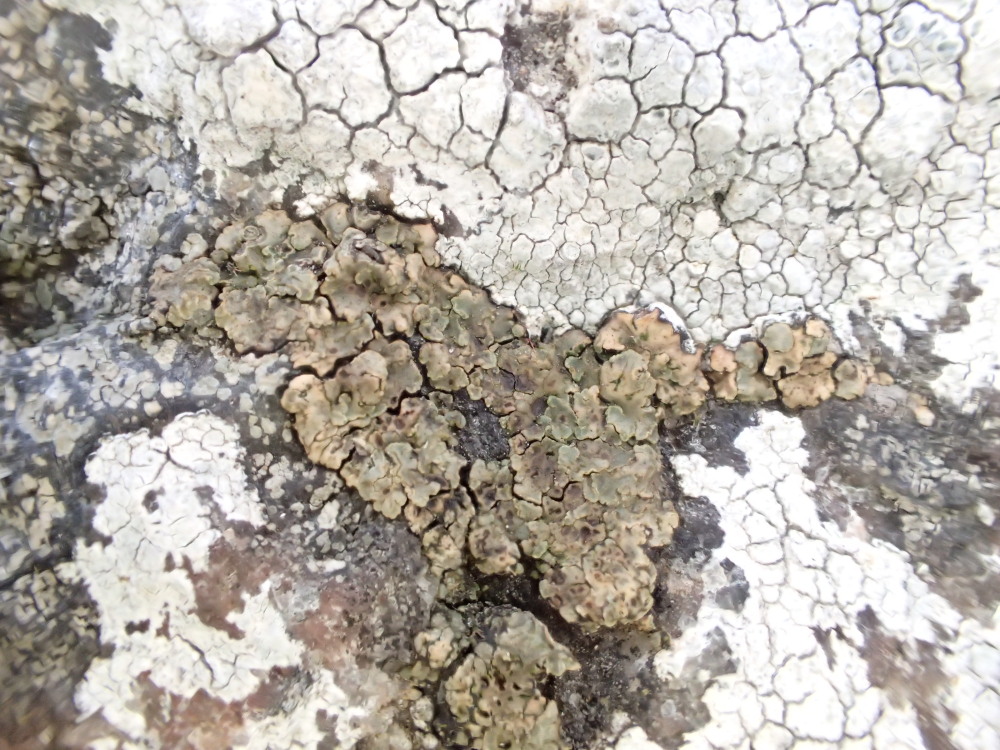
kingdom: Fungi
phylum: Ascomycota
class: Lecanoromycetes
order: Acarosporales
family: Acarosporaceae
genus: Acarospora
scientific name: Acarospora fuscata
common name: brun småsporelav
